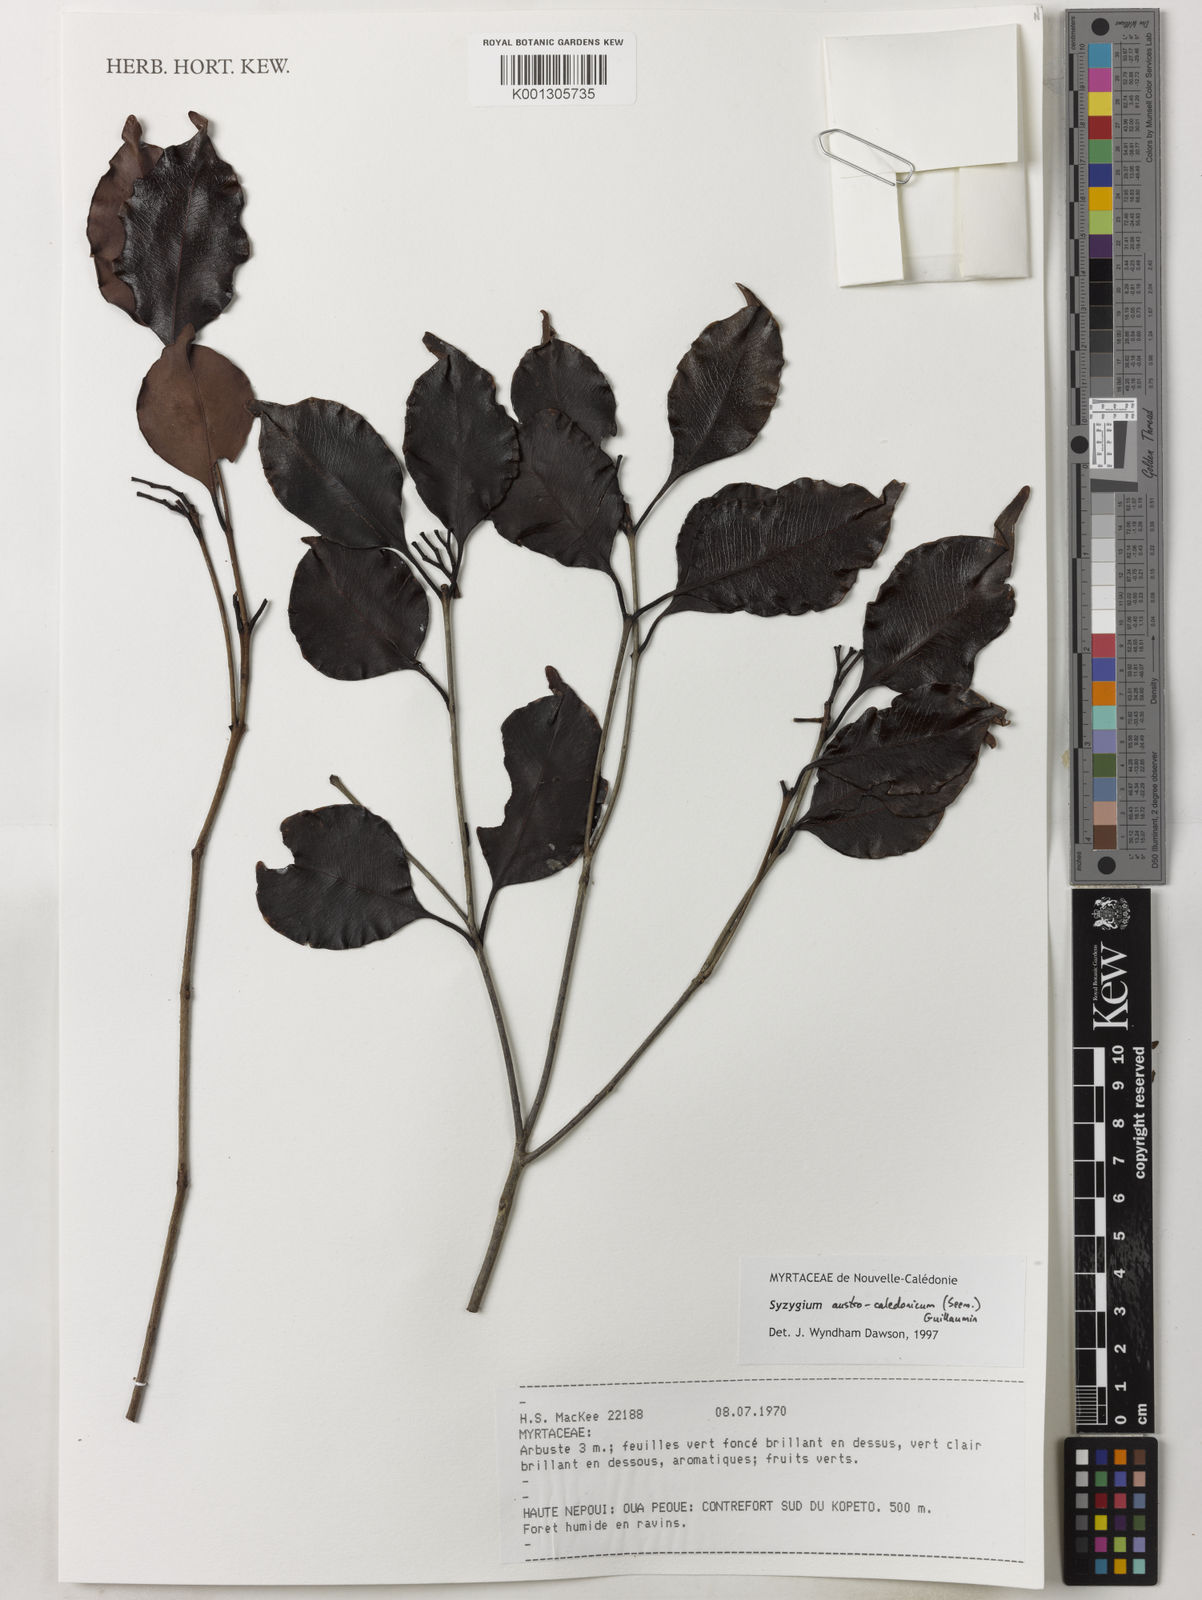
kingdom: Plantae
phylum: Tracheophyta
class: Magnoliopsida
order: Myrtales
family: Myrtaceae
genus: Syzygium
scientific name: Syzygium austrocaledonicum
